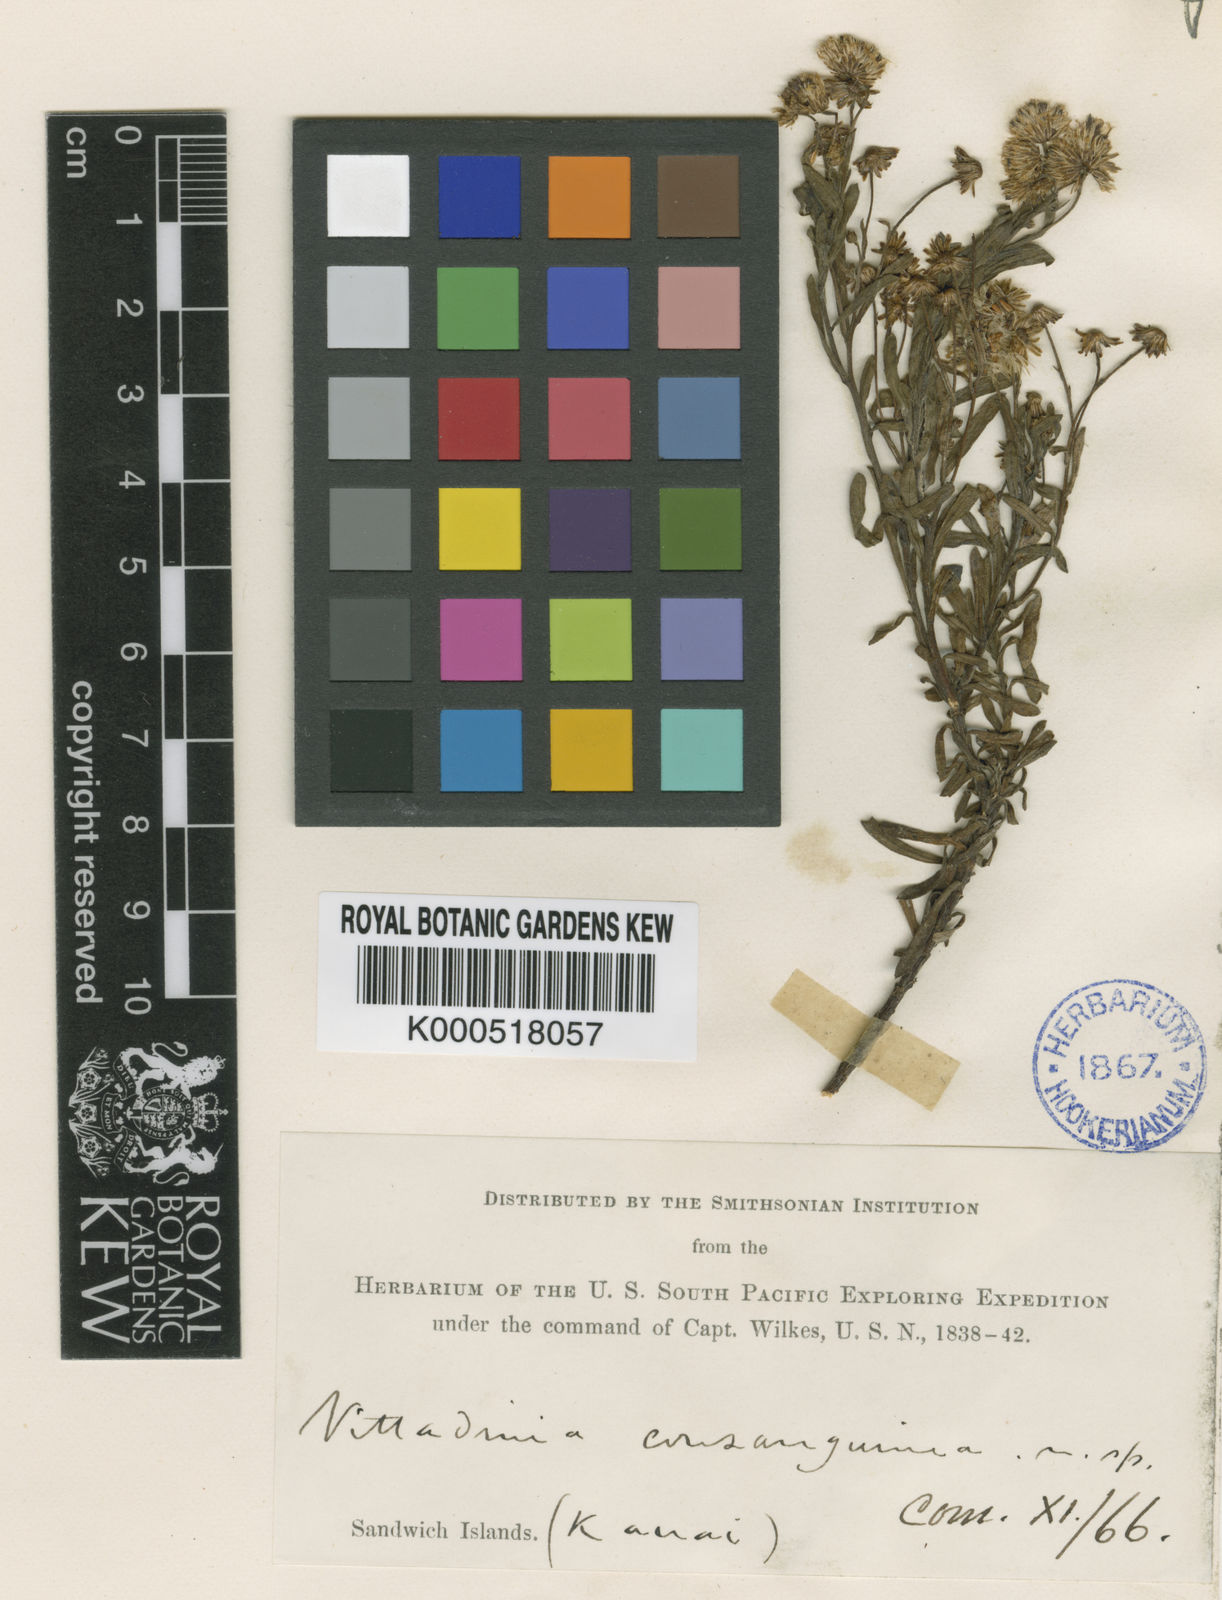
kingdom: Plantae
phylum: Tracheophyta
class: Magnoliopsida
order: Asterales
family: Asteraceae
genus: Tetramolopium
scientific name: Tetramolopium consanguineum
